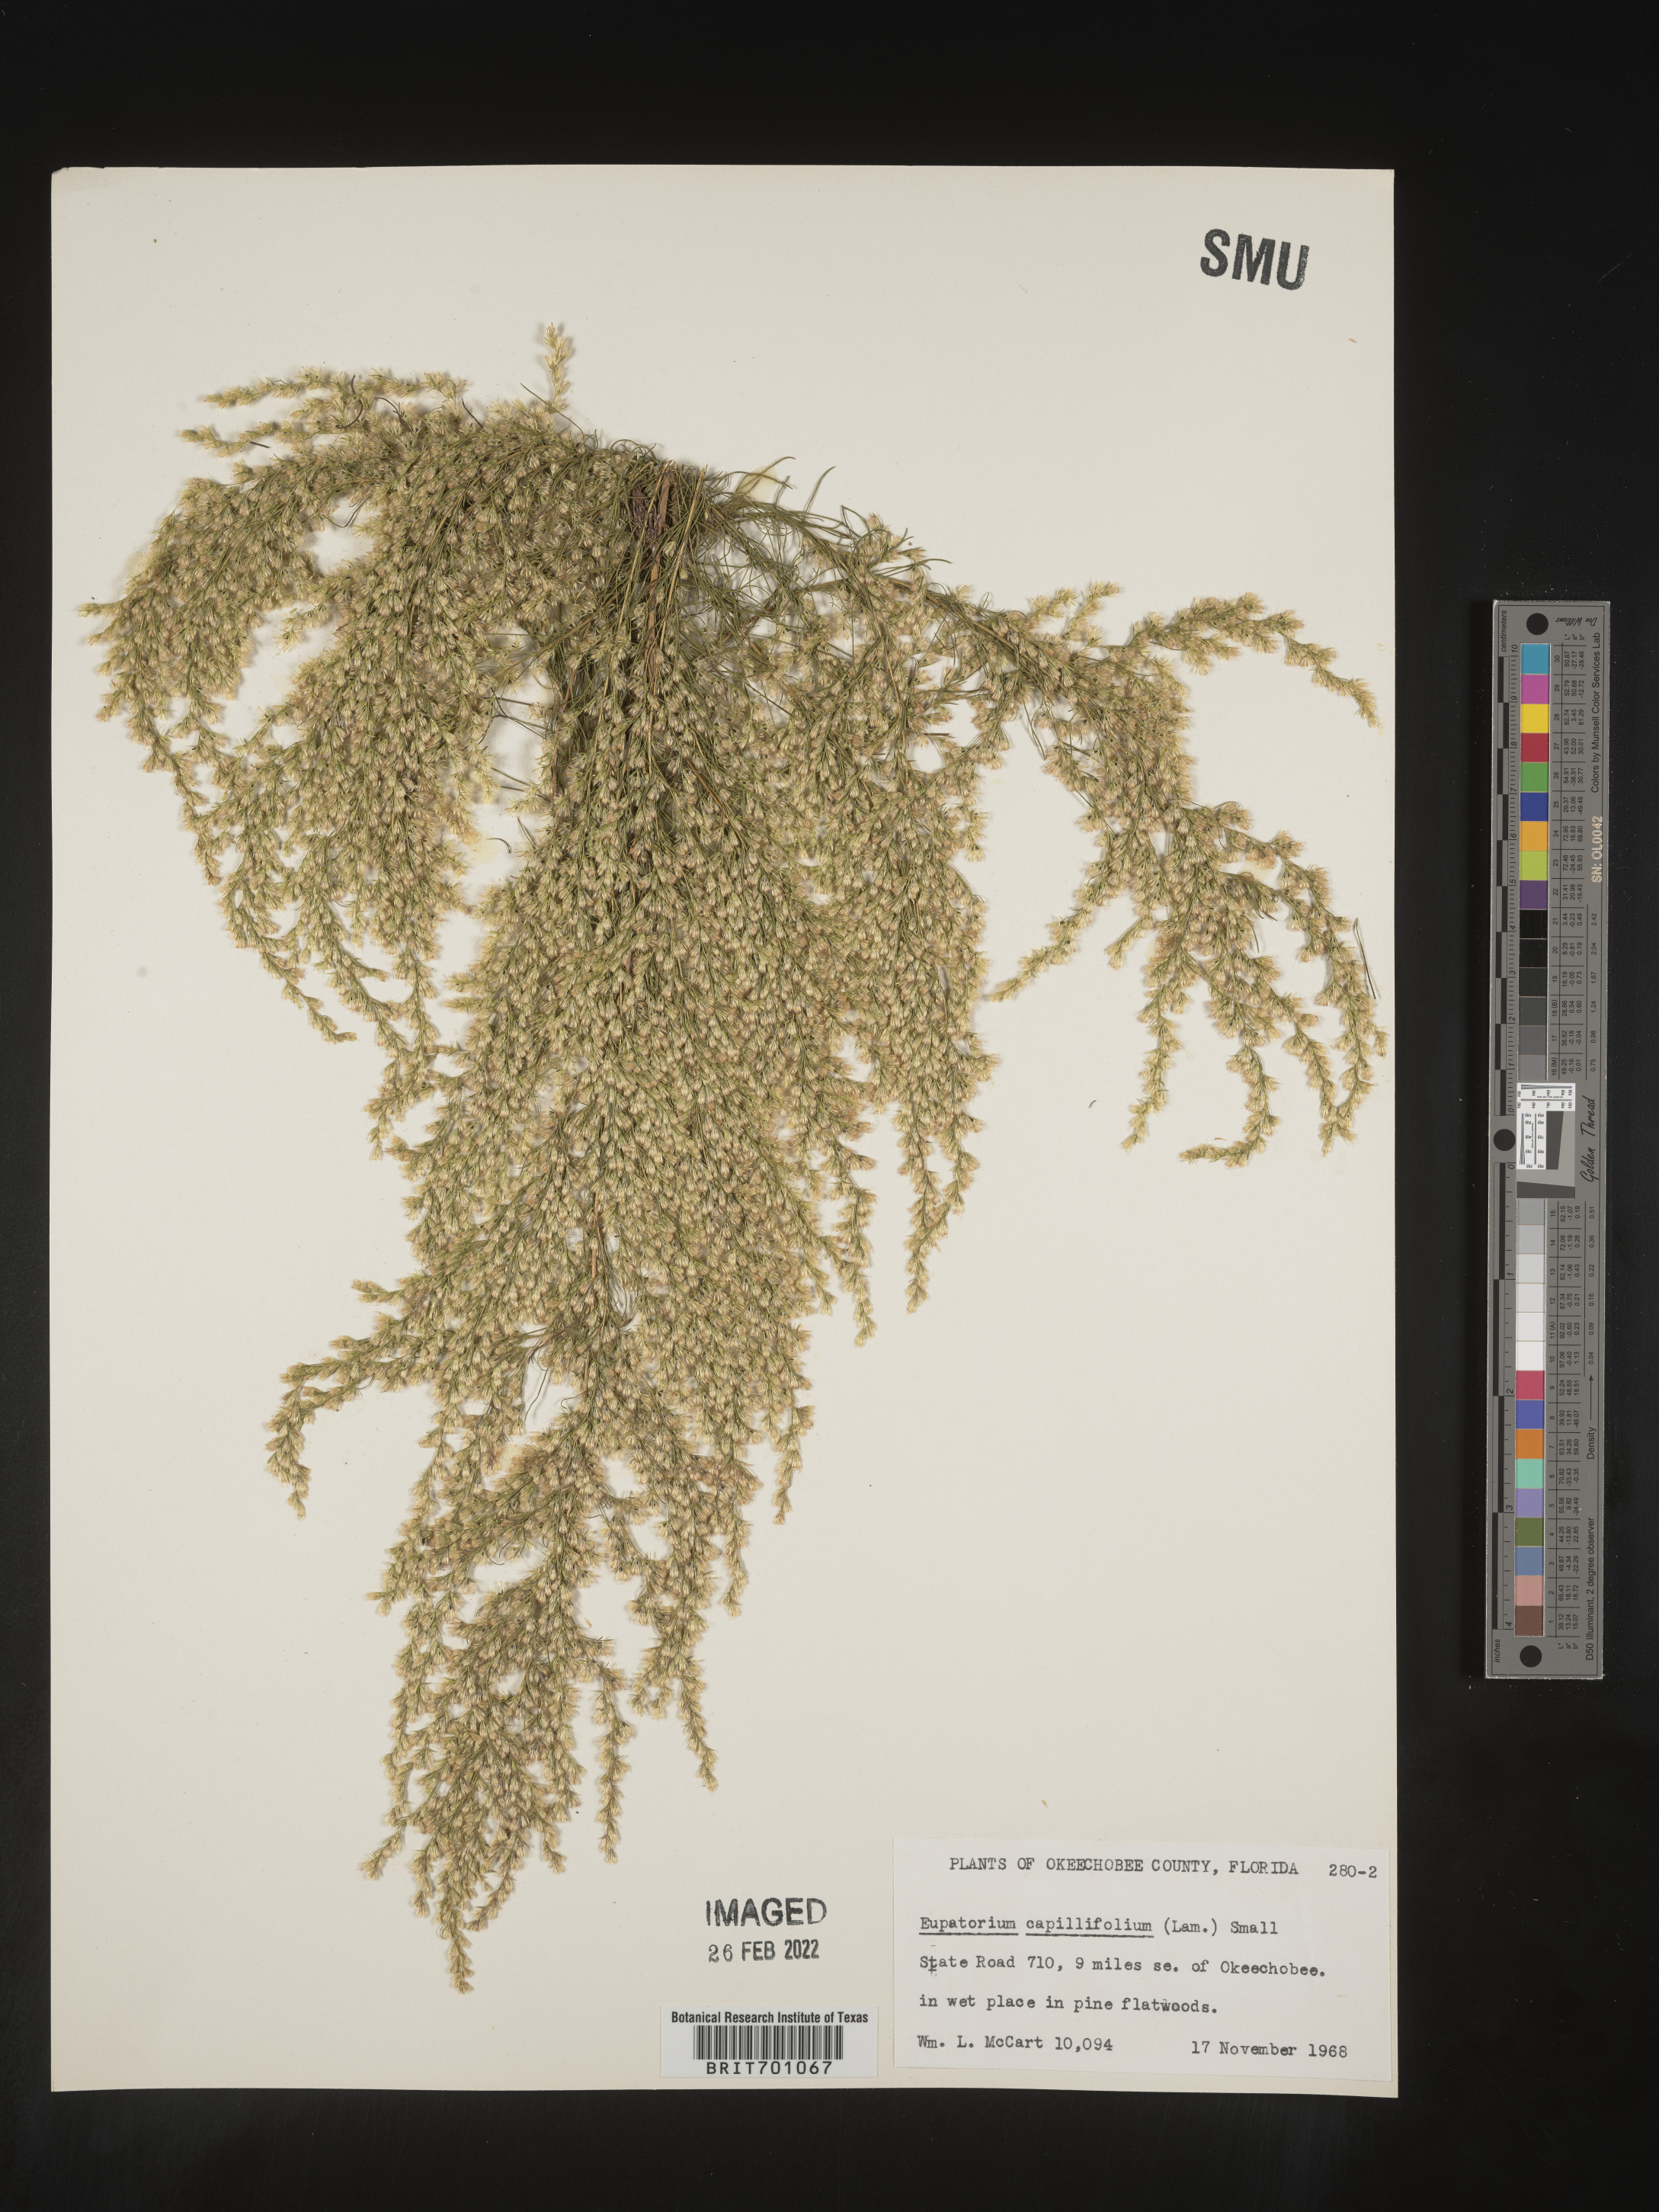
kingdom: Plantae
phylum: Tracheophyta
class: Magnoliopsida
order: Asterales
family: Asteraceae
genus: Eupatorium
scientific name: Eupatorium capillifolium
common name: Dog-fennel
